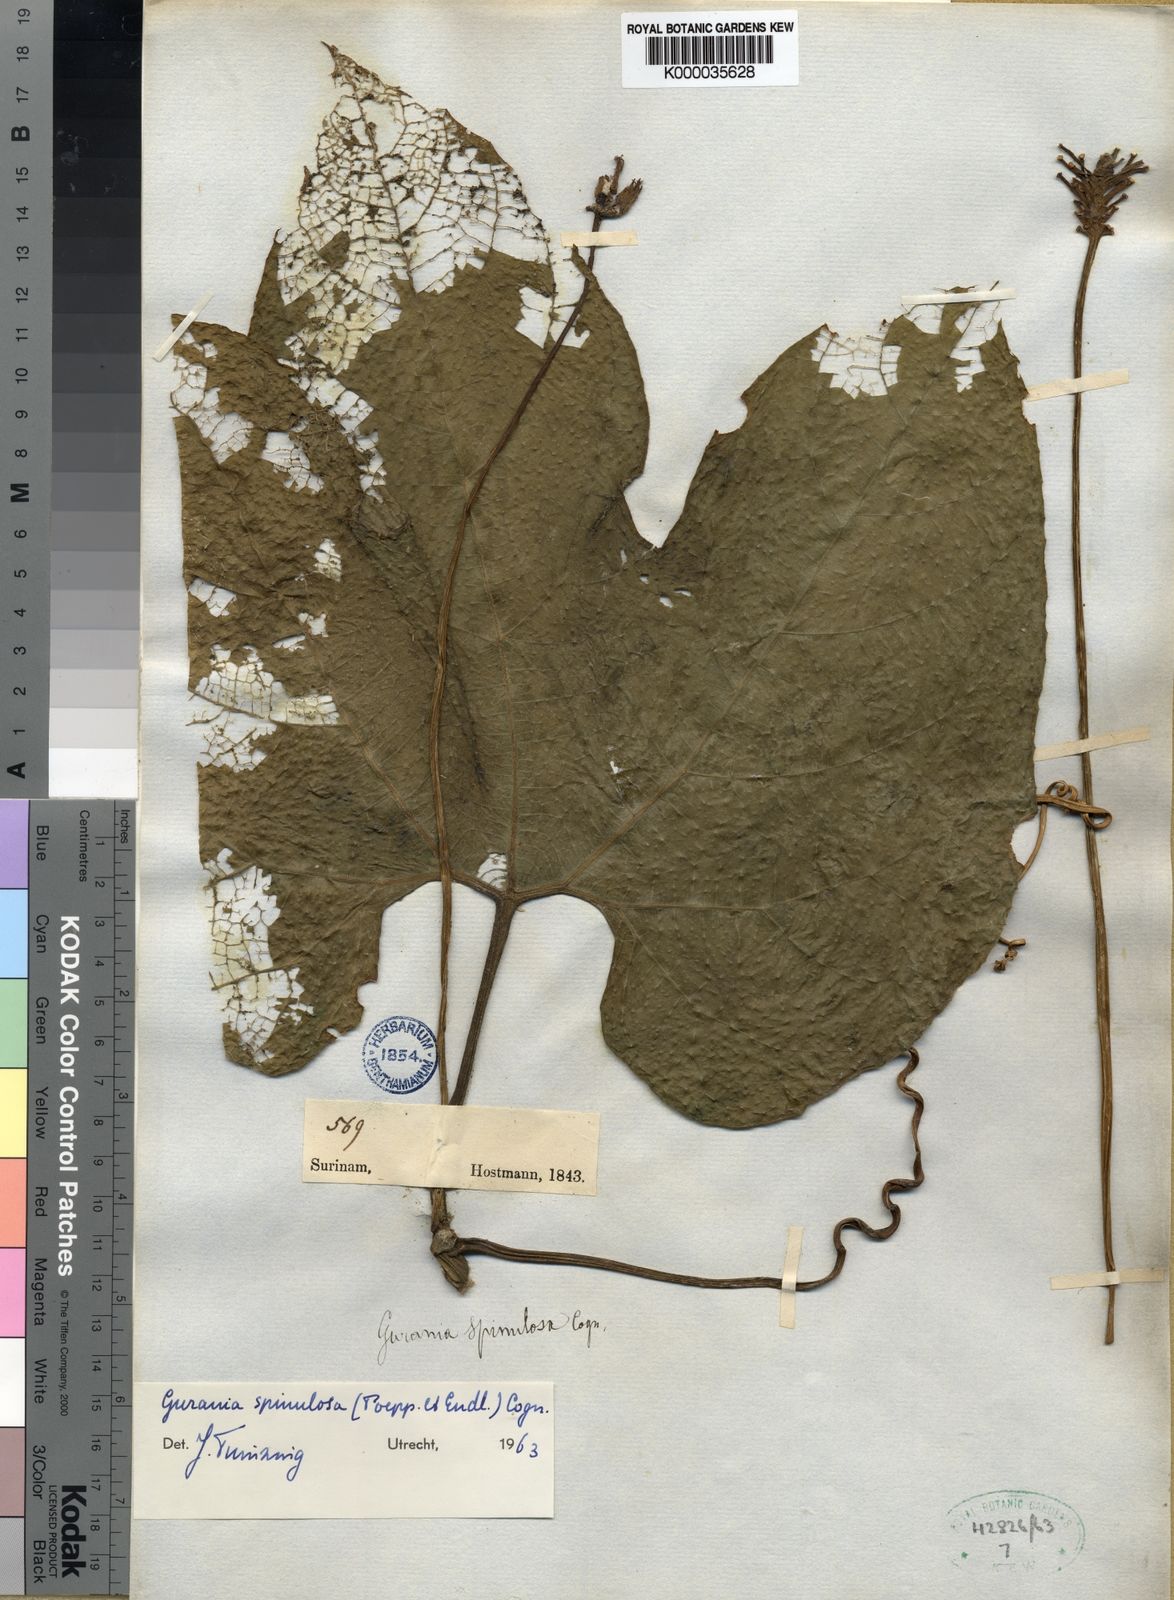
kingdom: Plantae
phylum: Tracheophyta
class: Magnoliopsida
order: Cucurbitales
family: Cucurbitaceae
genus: Gurania
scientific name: Gurania lobata
